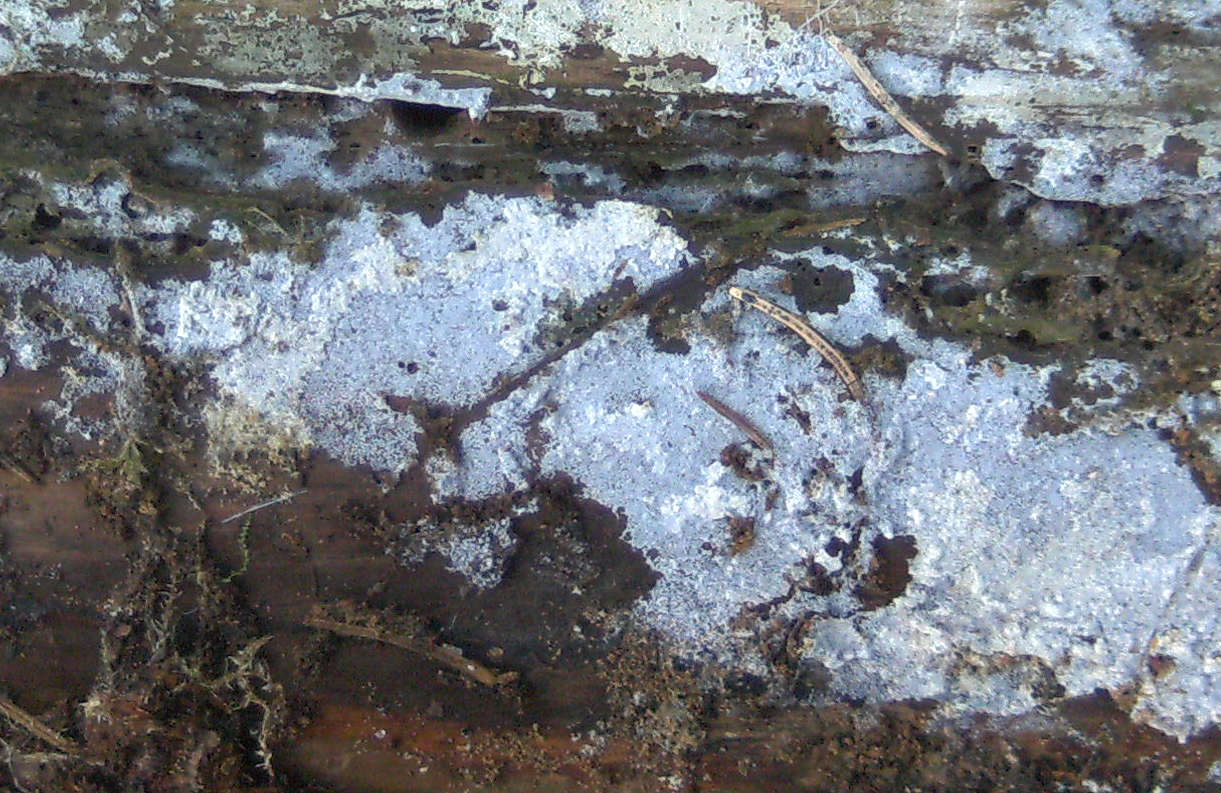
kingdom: Fungi
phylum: Basidiomycota
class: Agaricomycetes
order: Atheliales
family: Atheliaceae
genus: Athelia
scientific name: Athelia neuhoffii
